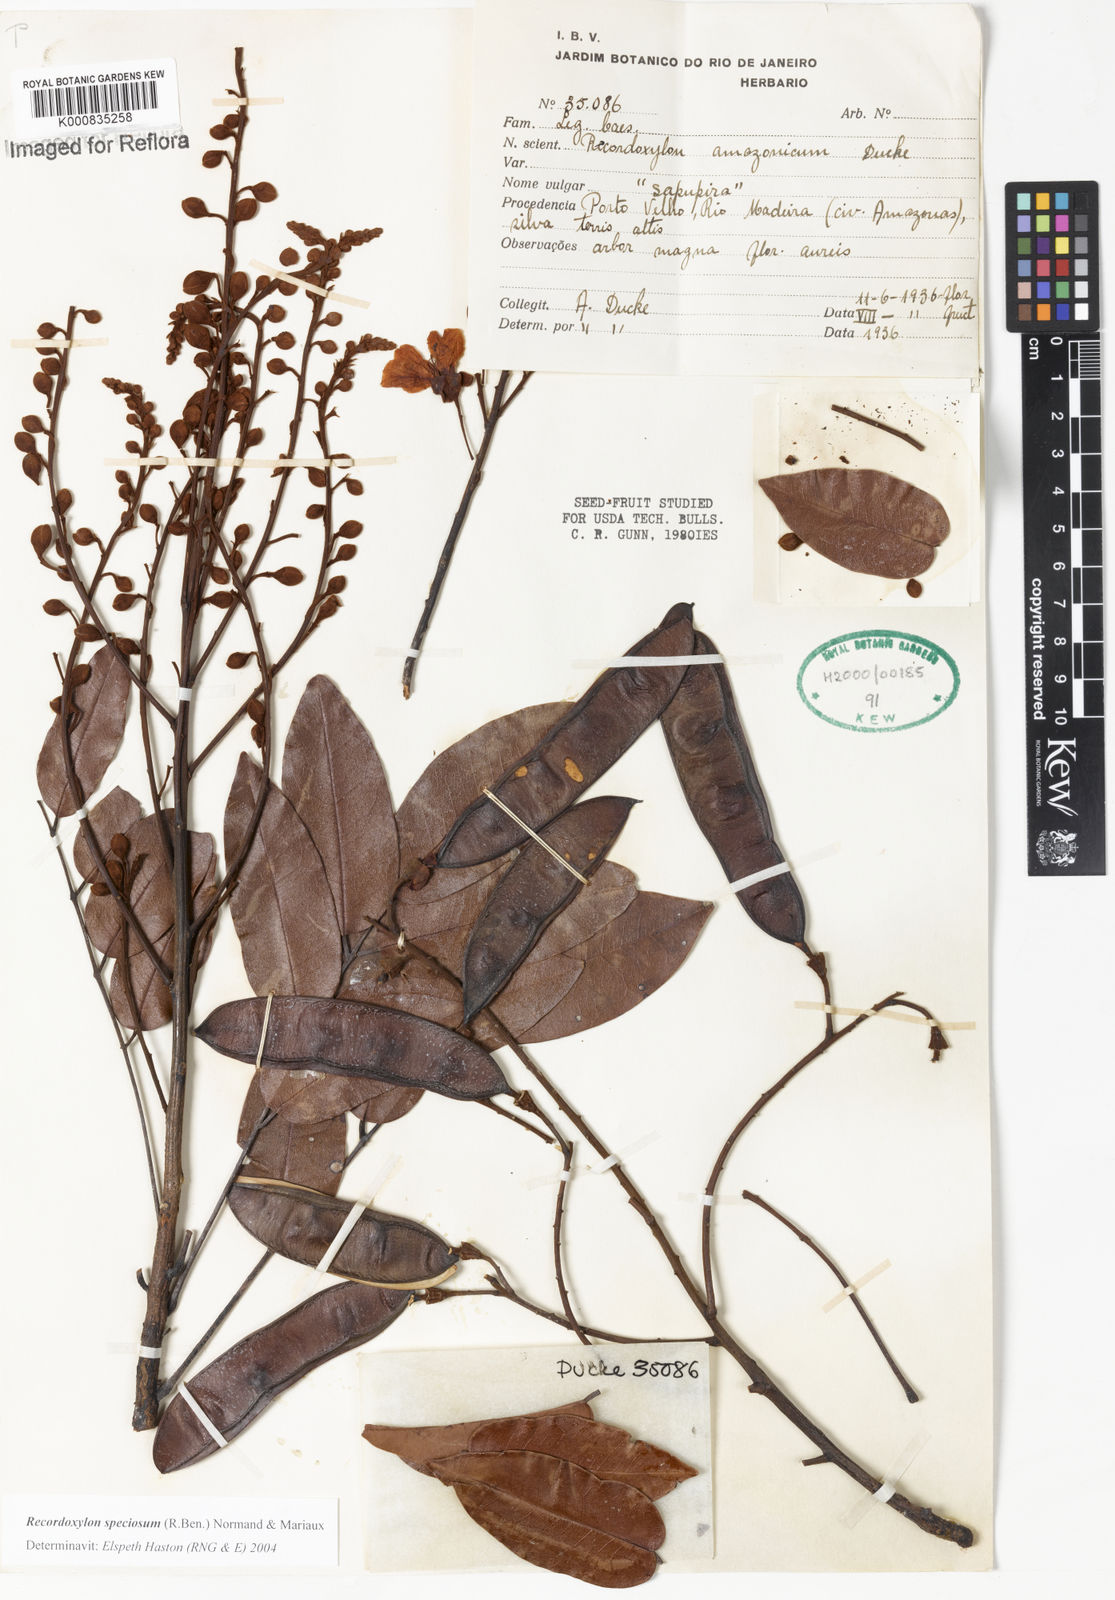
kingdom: Plantae
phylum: Tracheophyta
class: Magnoliopsida
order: Fabales
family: Fabaceae
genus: Recordoxylon
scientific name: Recordoxylon speciosum
